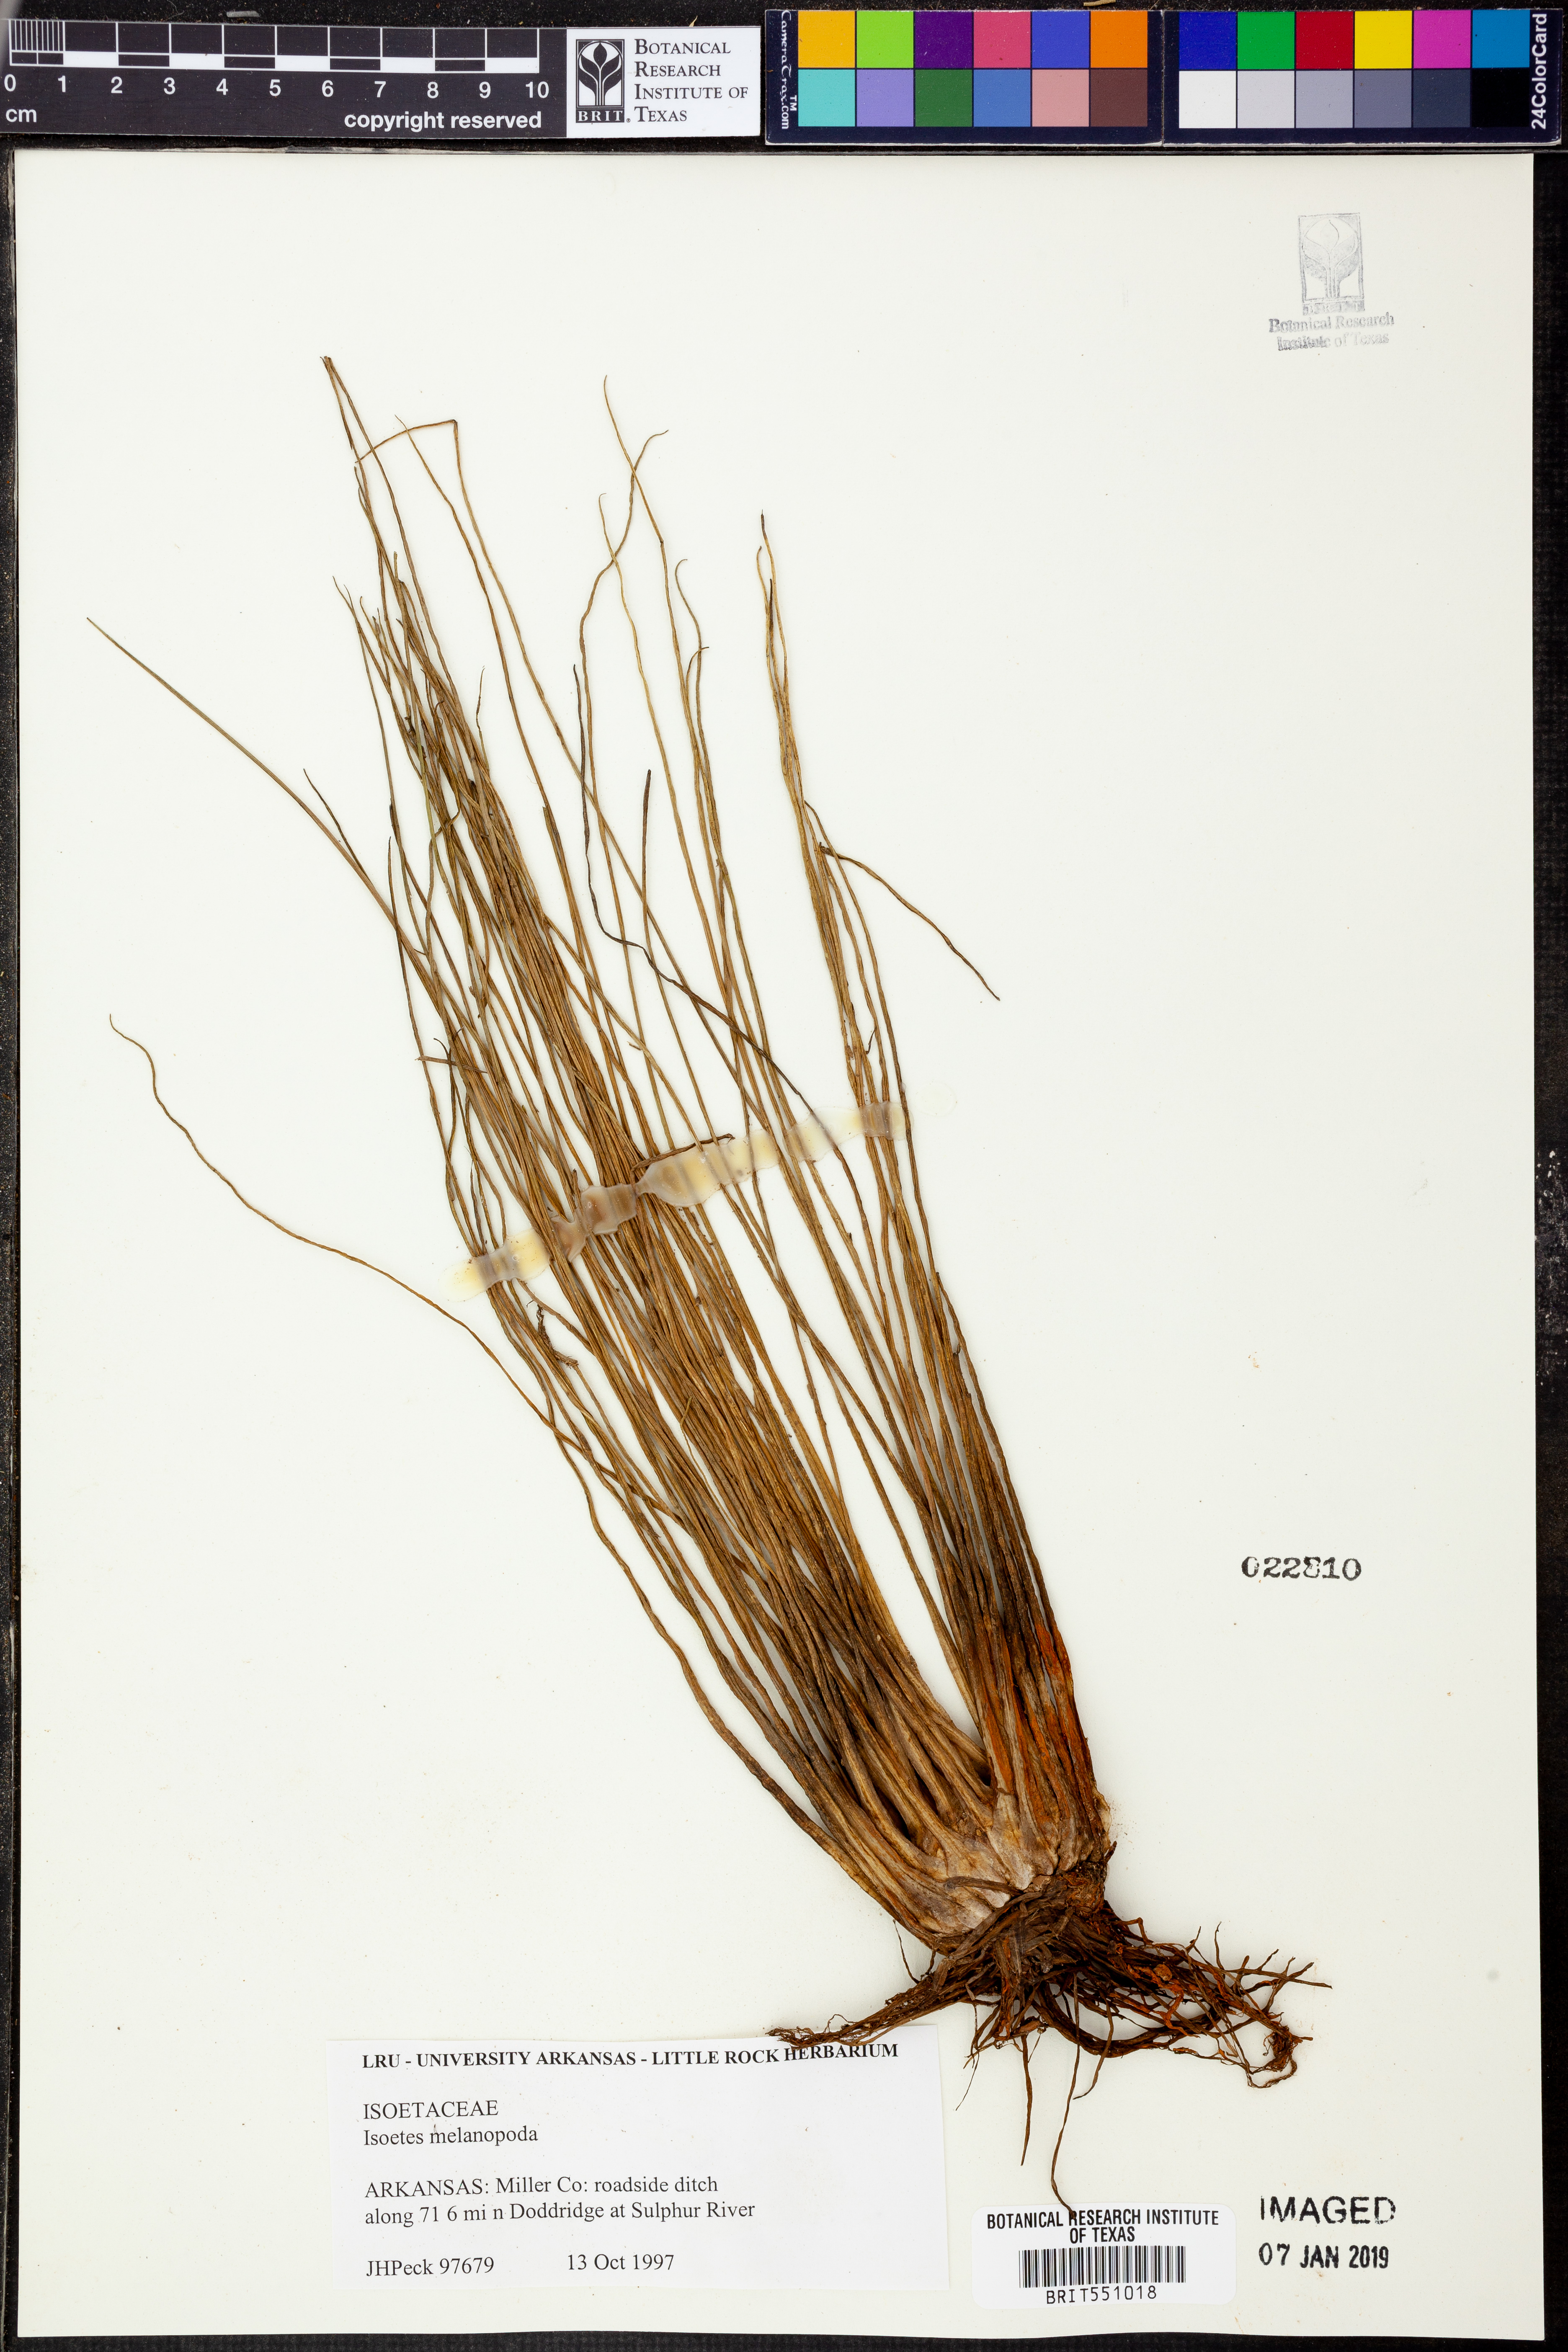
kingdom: Plantae
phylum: Tracheophyta
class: Lycopodiopsida
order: Isoetales
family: Isoetaceae
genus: Isoetes
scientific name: Isoetes melanopoda
